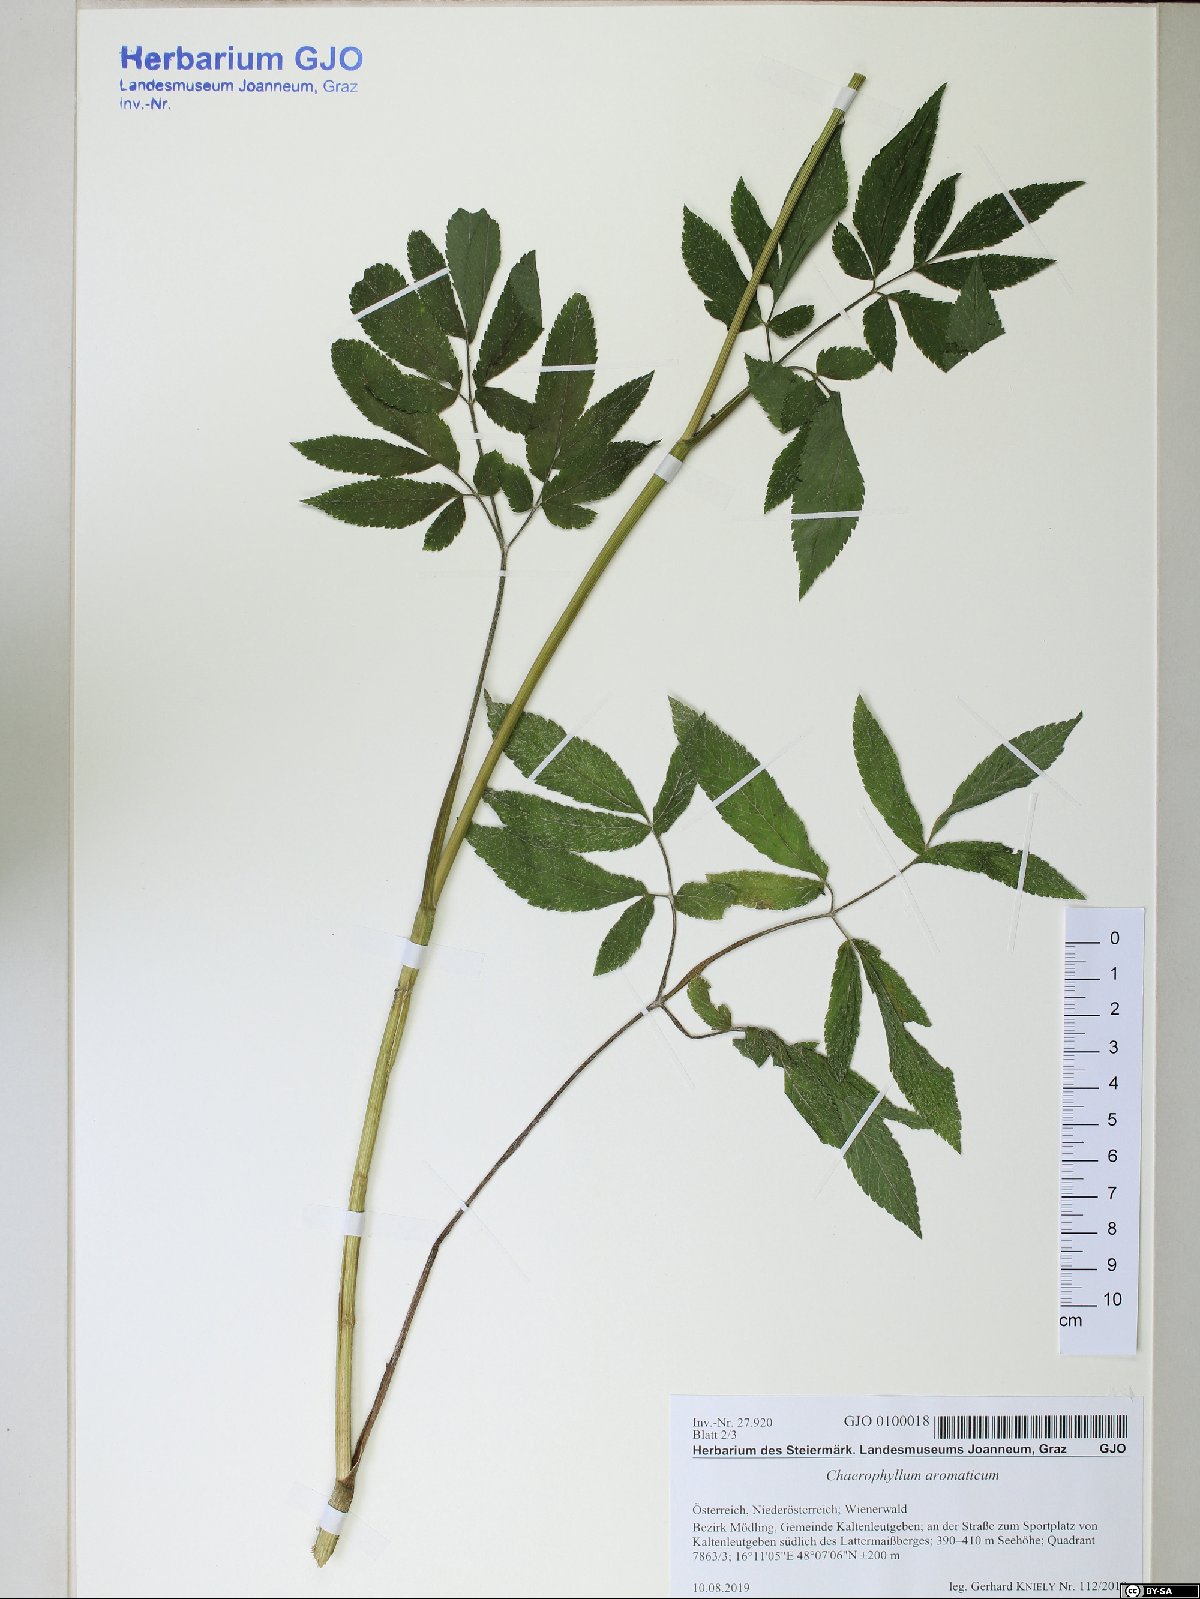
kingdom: Plantae
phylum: Tracheophyta
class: Magnoliopsida
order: Apiales
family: Apiaceae
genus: Chaerophyllum
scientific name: Chaerophyllum aromaticum
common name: Broadleaf chervil
